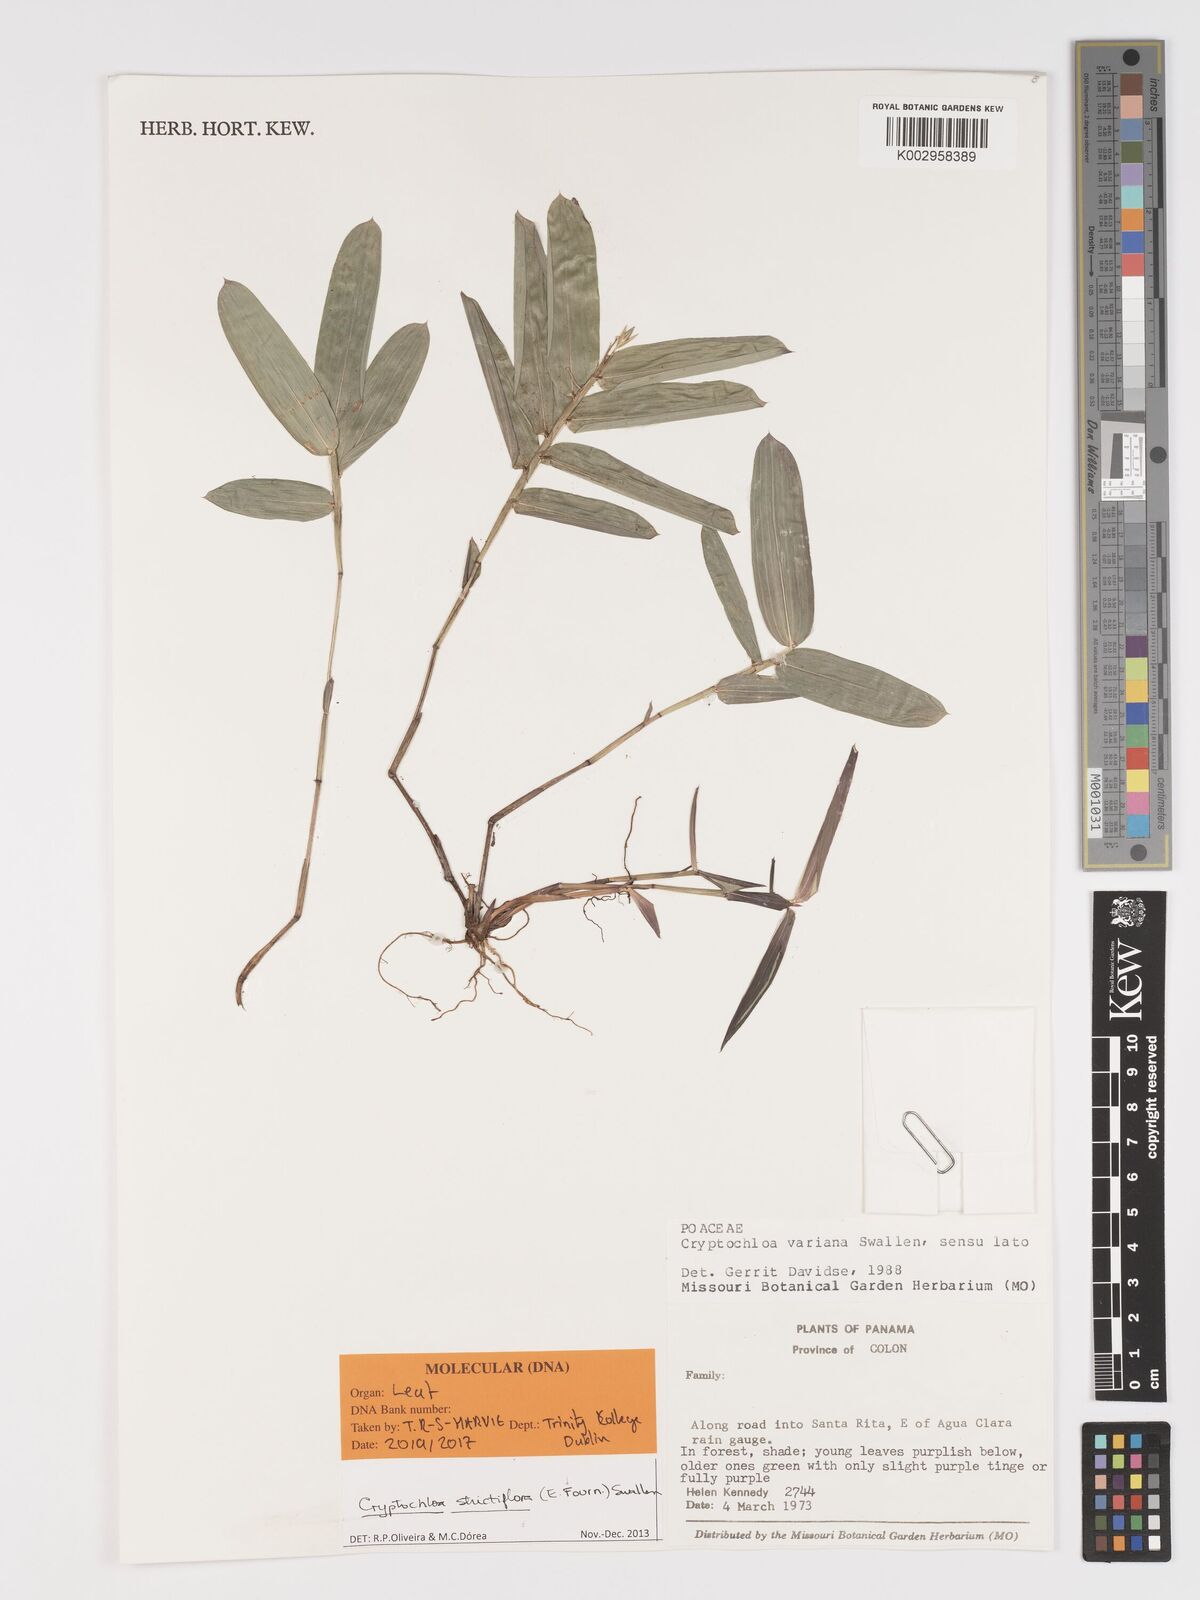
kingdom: Plantae
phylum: Tracheophyta
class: Liliopsida
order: Poales
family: Poaceae
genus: Cryptochloa
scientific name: Cryptochloa strictiflora
